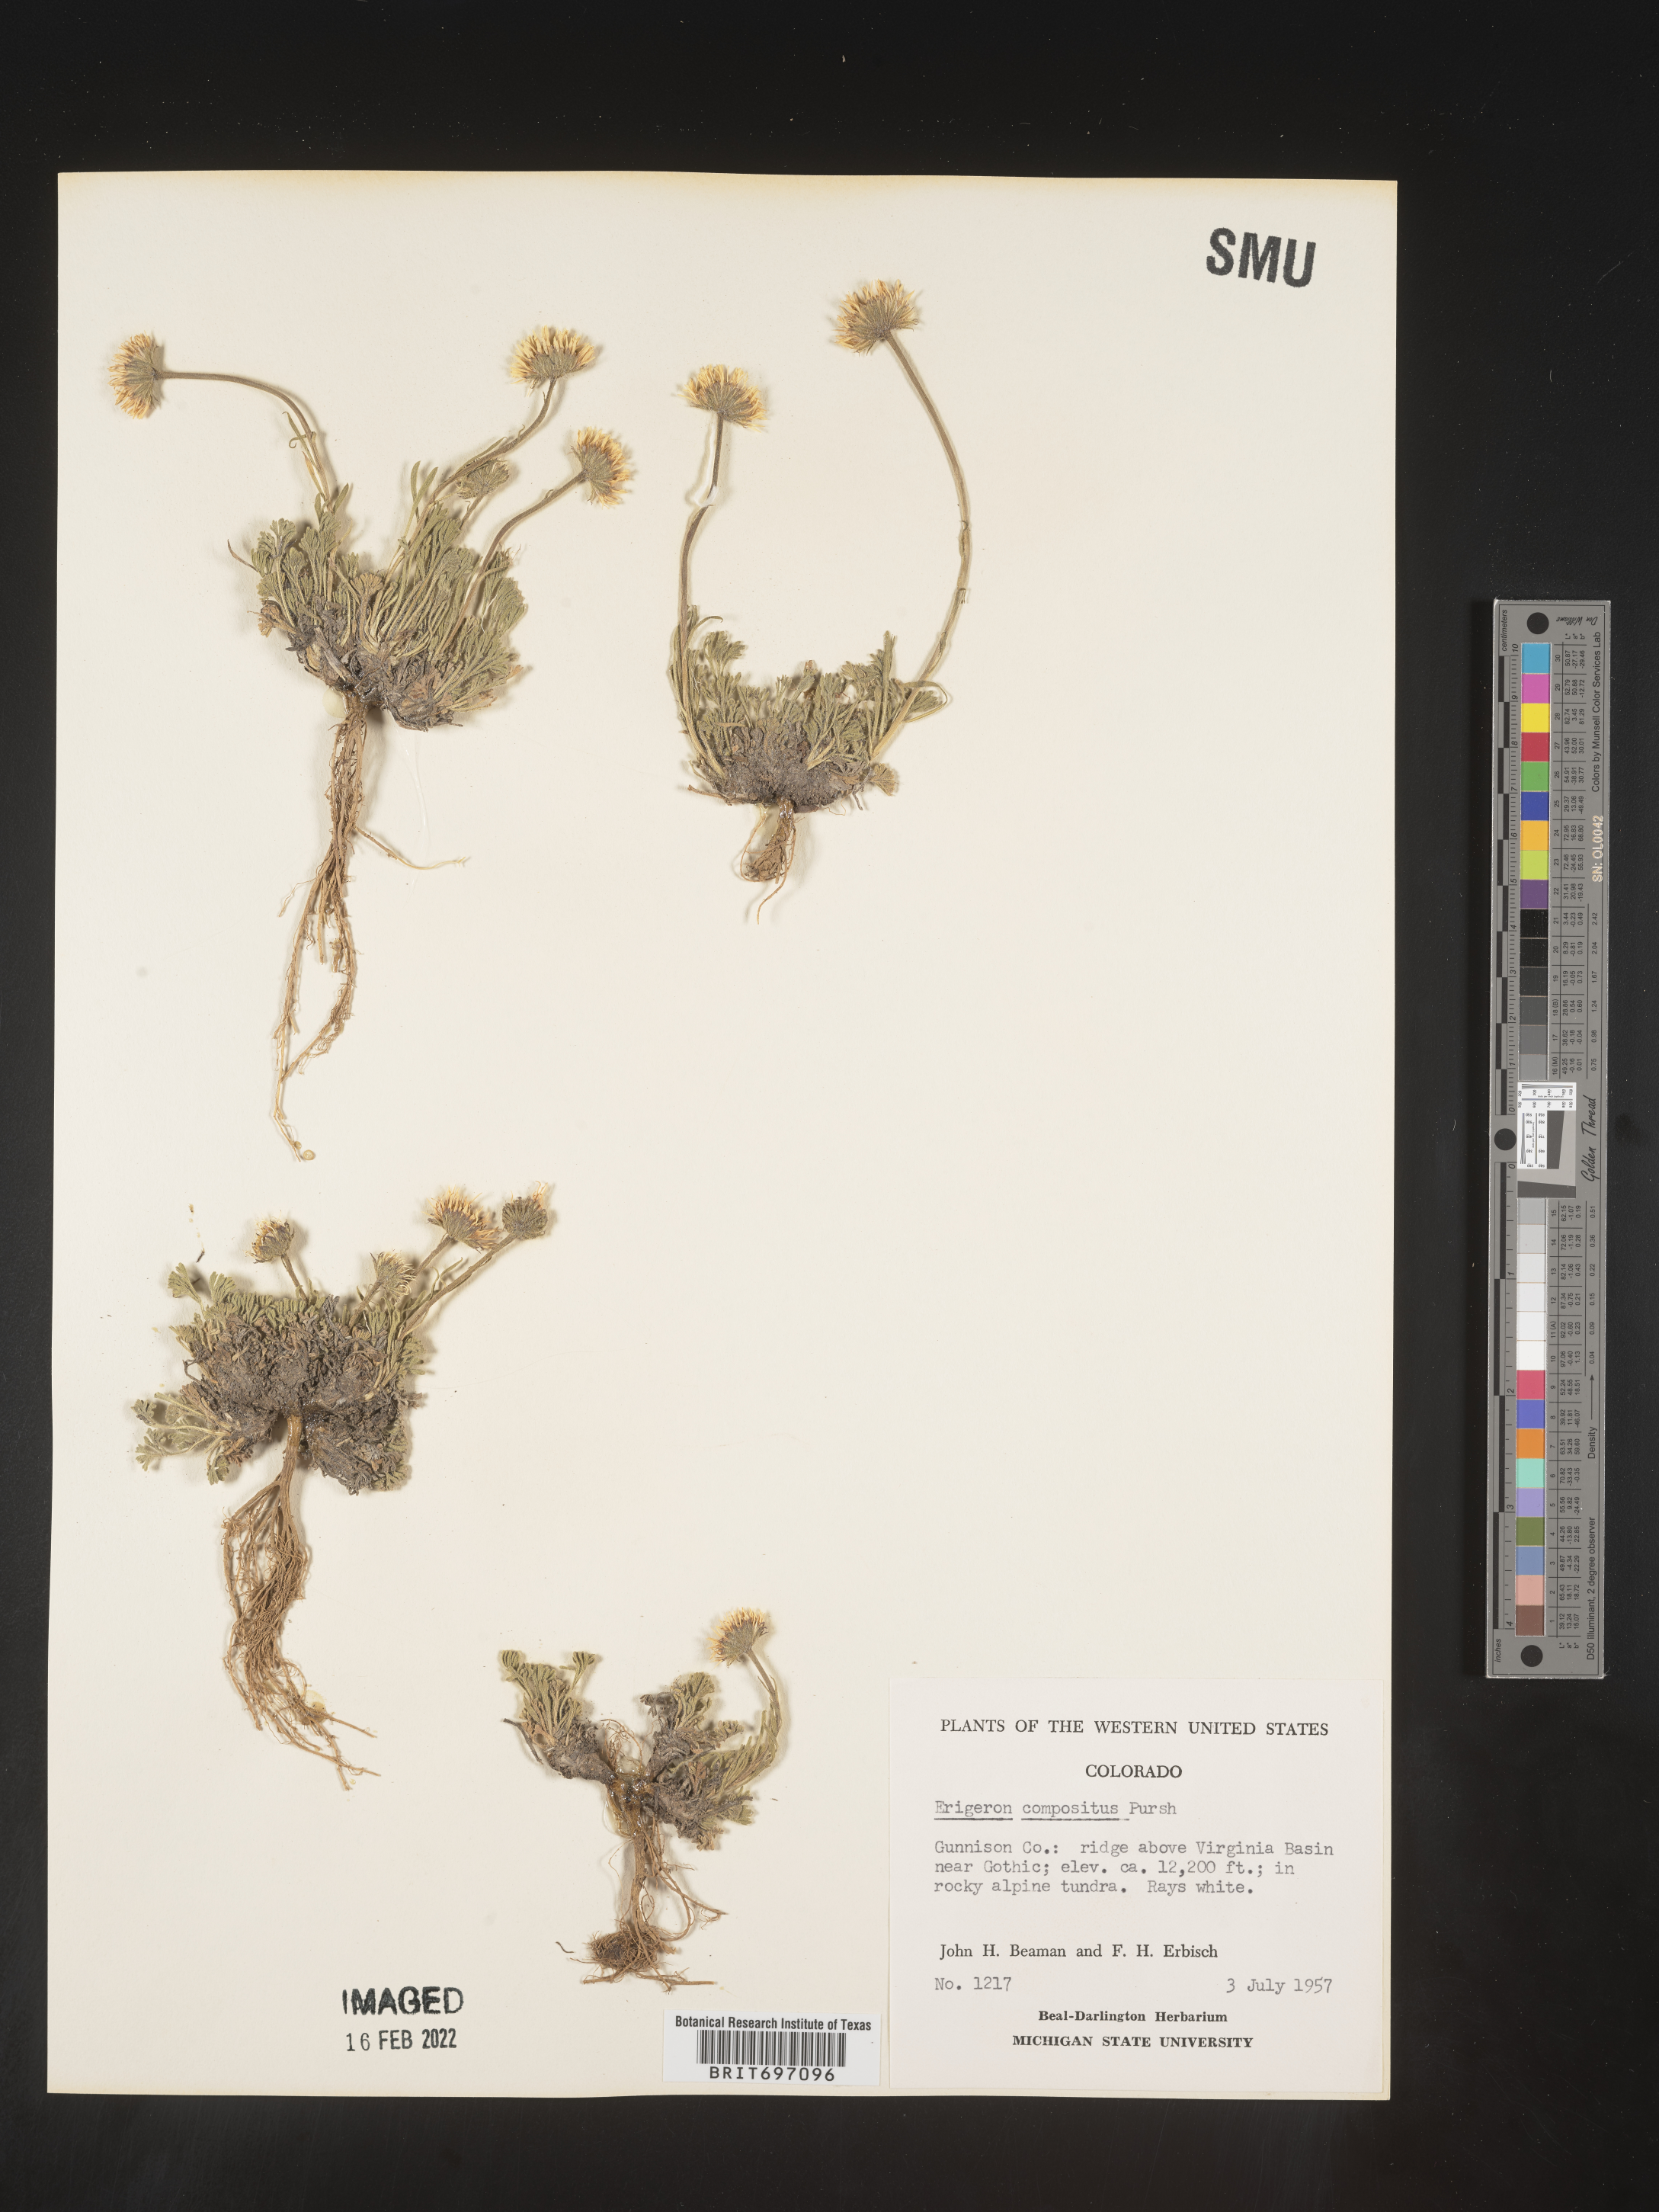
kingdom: Plantae
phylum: Tracheophyta
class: Magnoliopsida
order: Asterales
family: Asteraceae
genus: Erigeron
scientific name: Erigeron compositus
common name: Dwarf mountain fleabane
